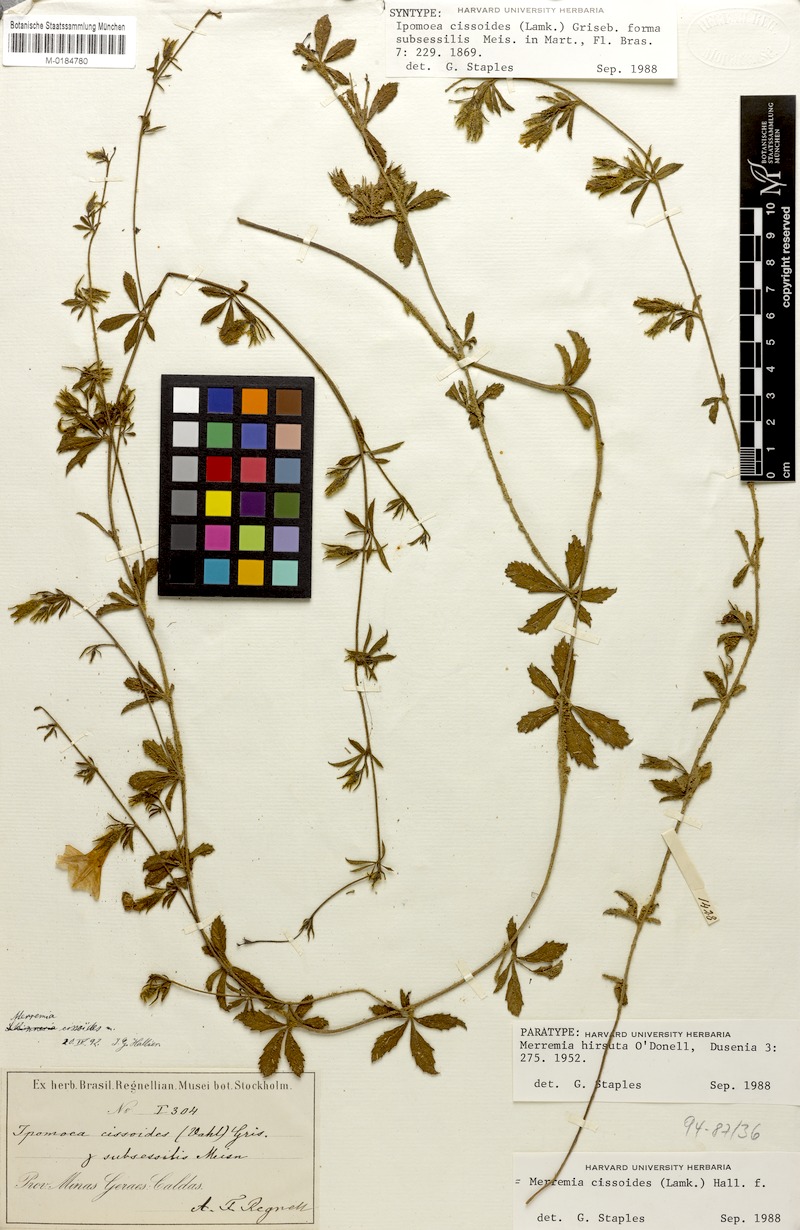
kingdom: Plantae
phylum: Tracheophyta
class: Magnoliopsida
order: Solanales
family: Convolvulaceae
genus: Distimake
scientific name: Distimake cissoides
